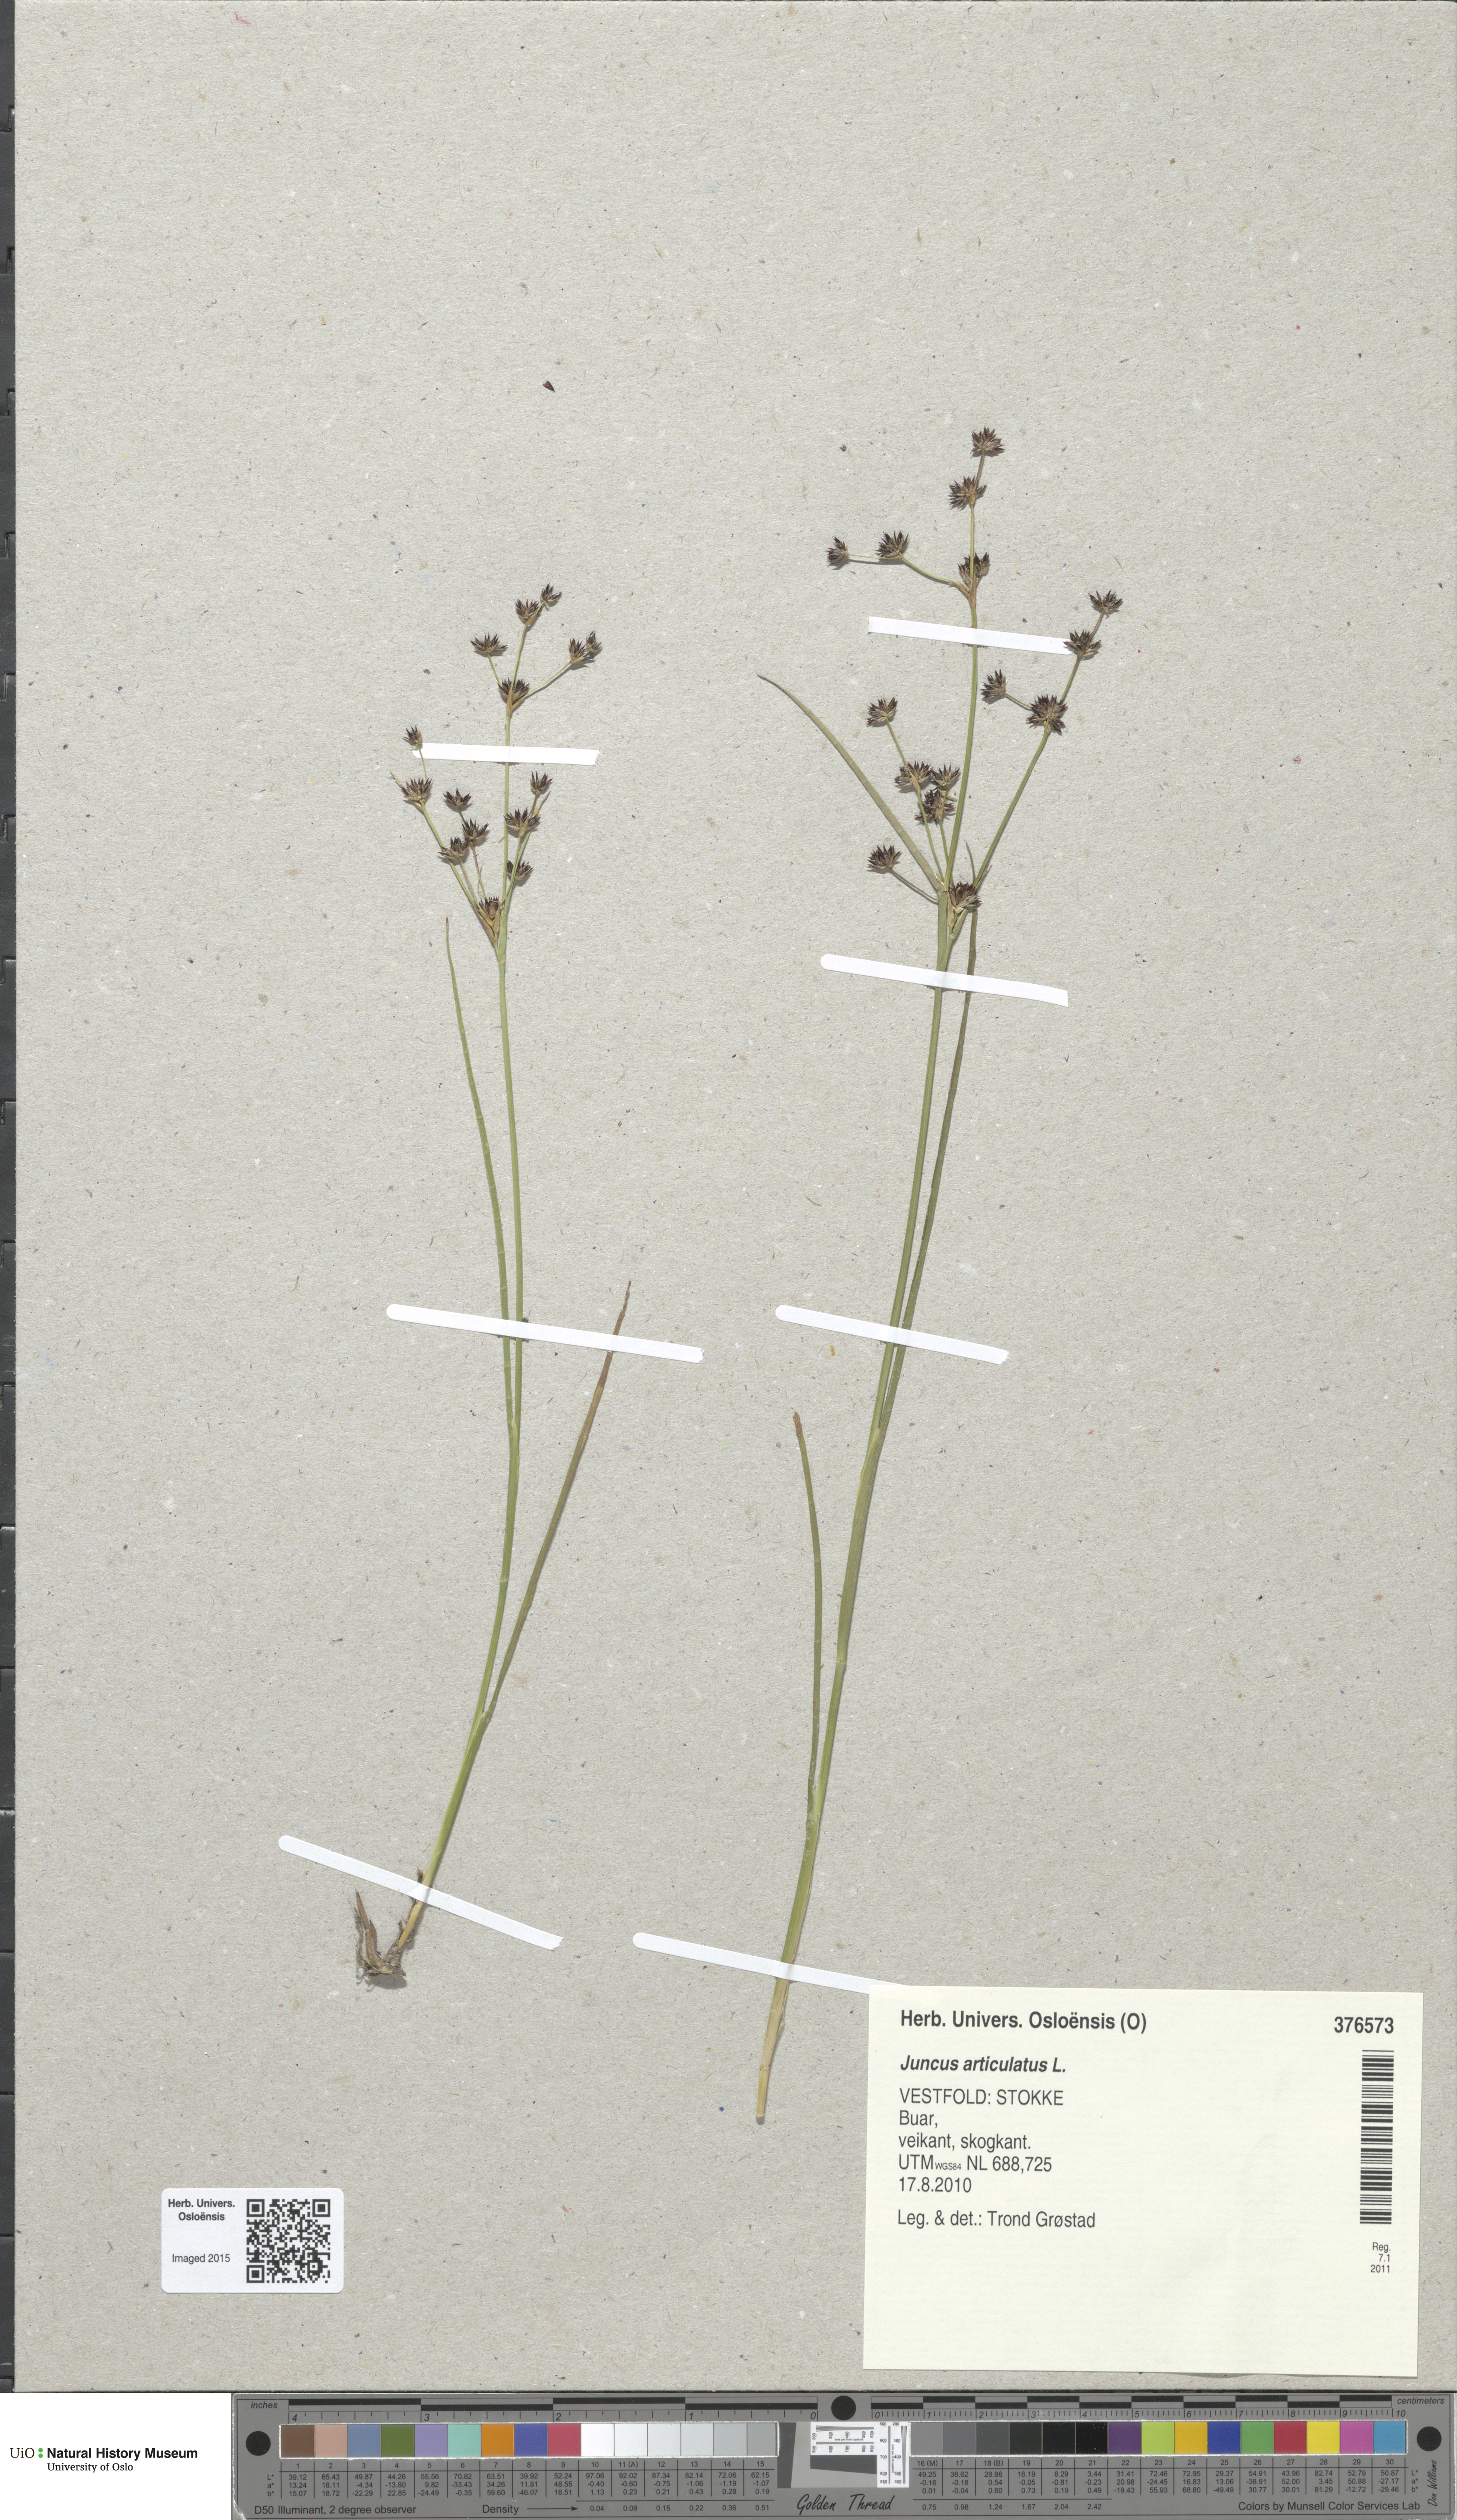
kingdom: Plantae
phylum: Tracheophyta
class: Liliopsida
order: Poales
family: Juncaceae
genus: Juncus
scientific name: Juncus articulatus
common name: Jointed rush
